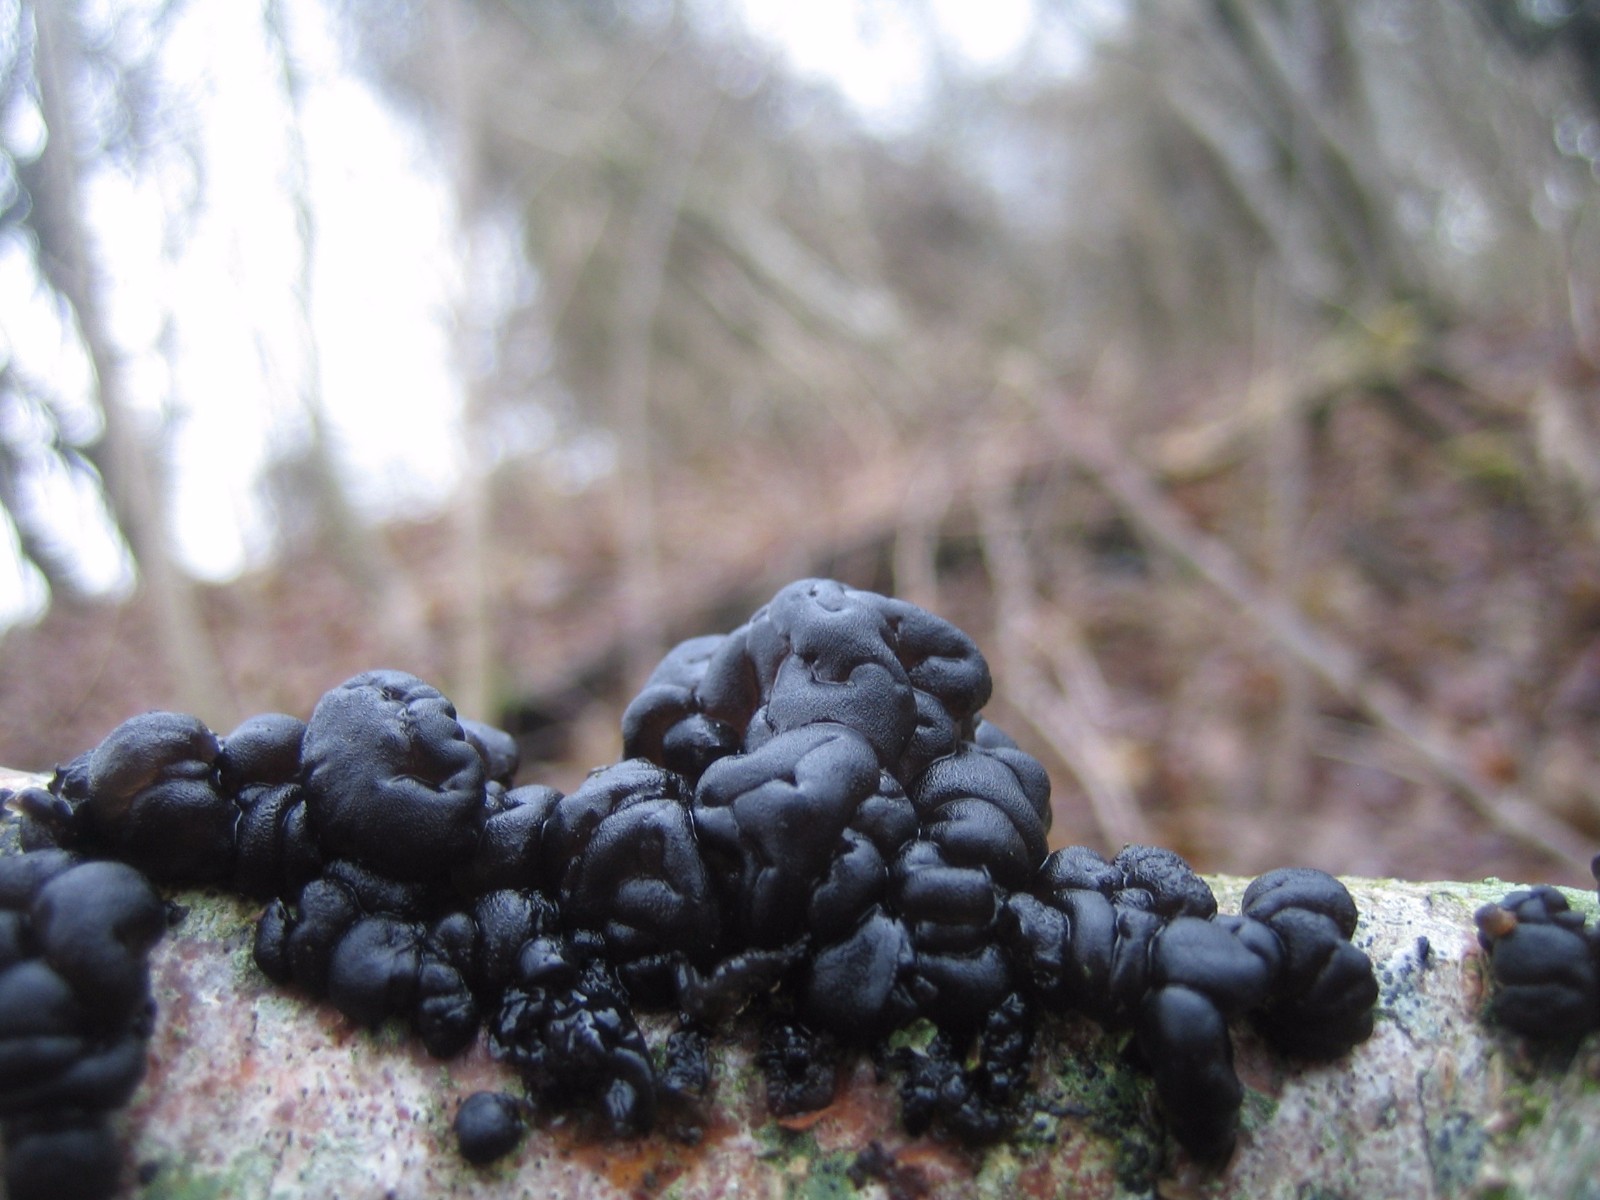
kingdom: Fungi
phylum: Basidiomycota
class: Agaricomycetes
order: Auriculariales
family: Auriculariaceae
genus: Exidia
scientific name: Exidia nigricans
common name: almindelig bævretop
